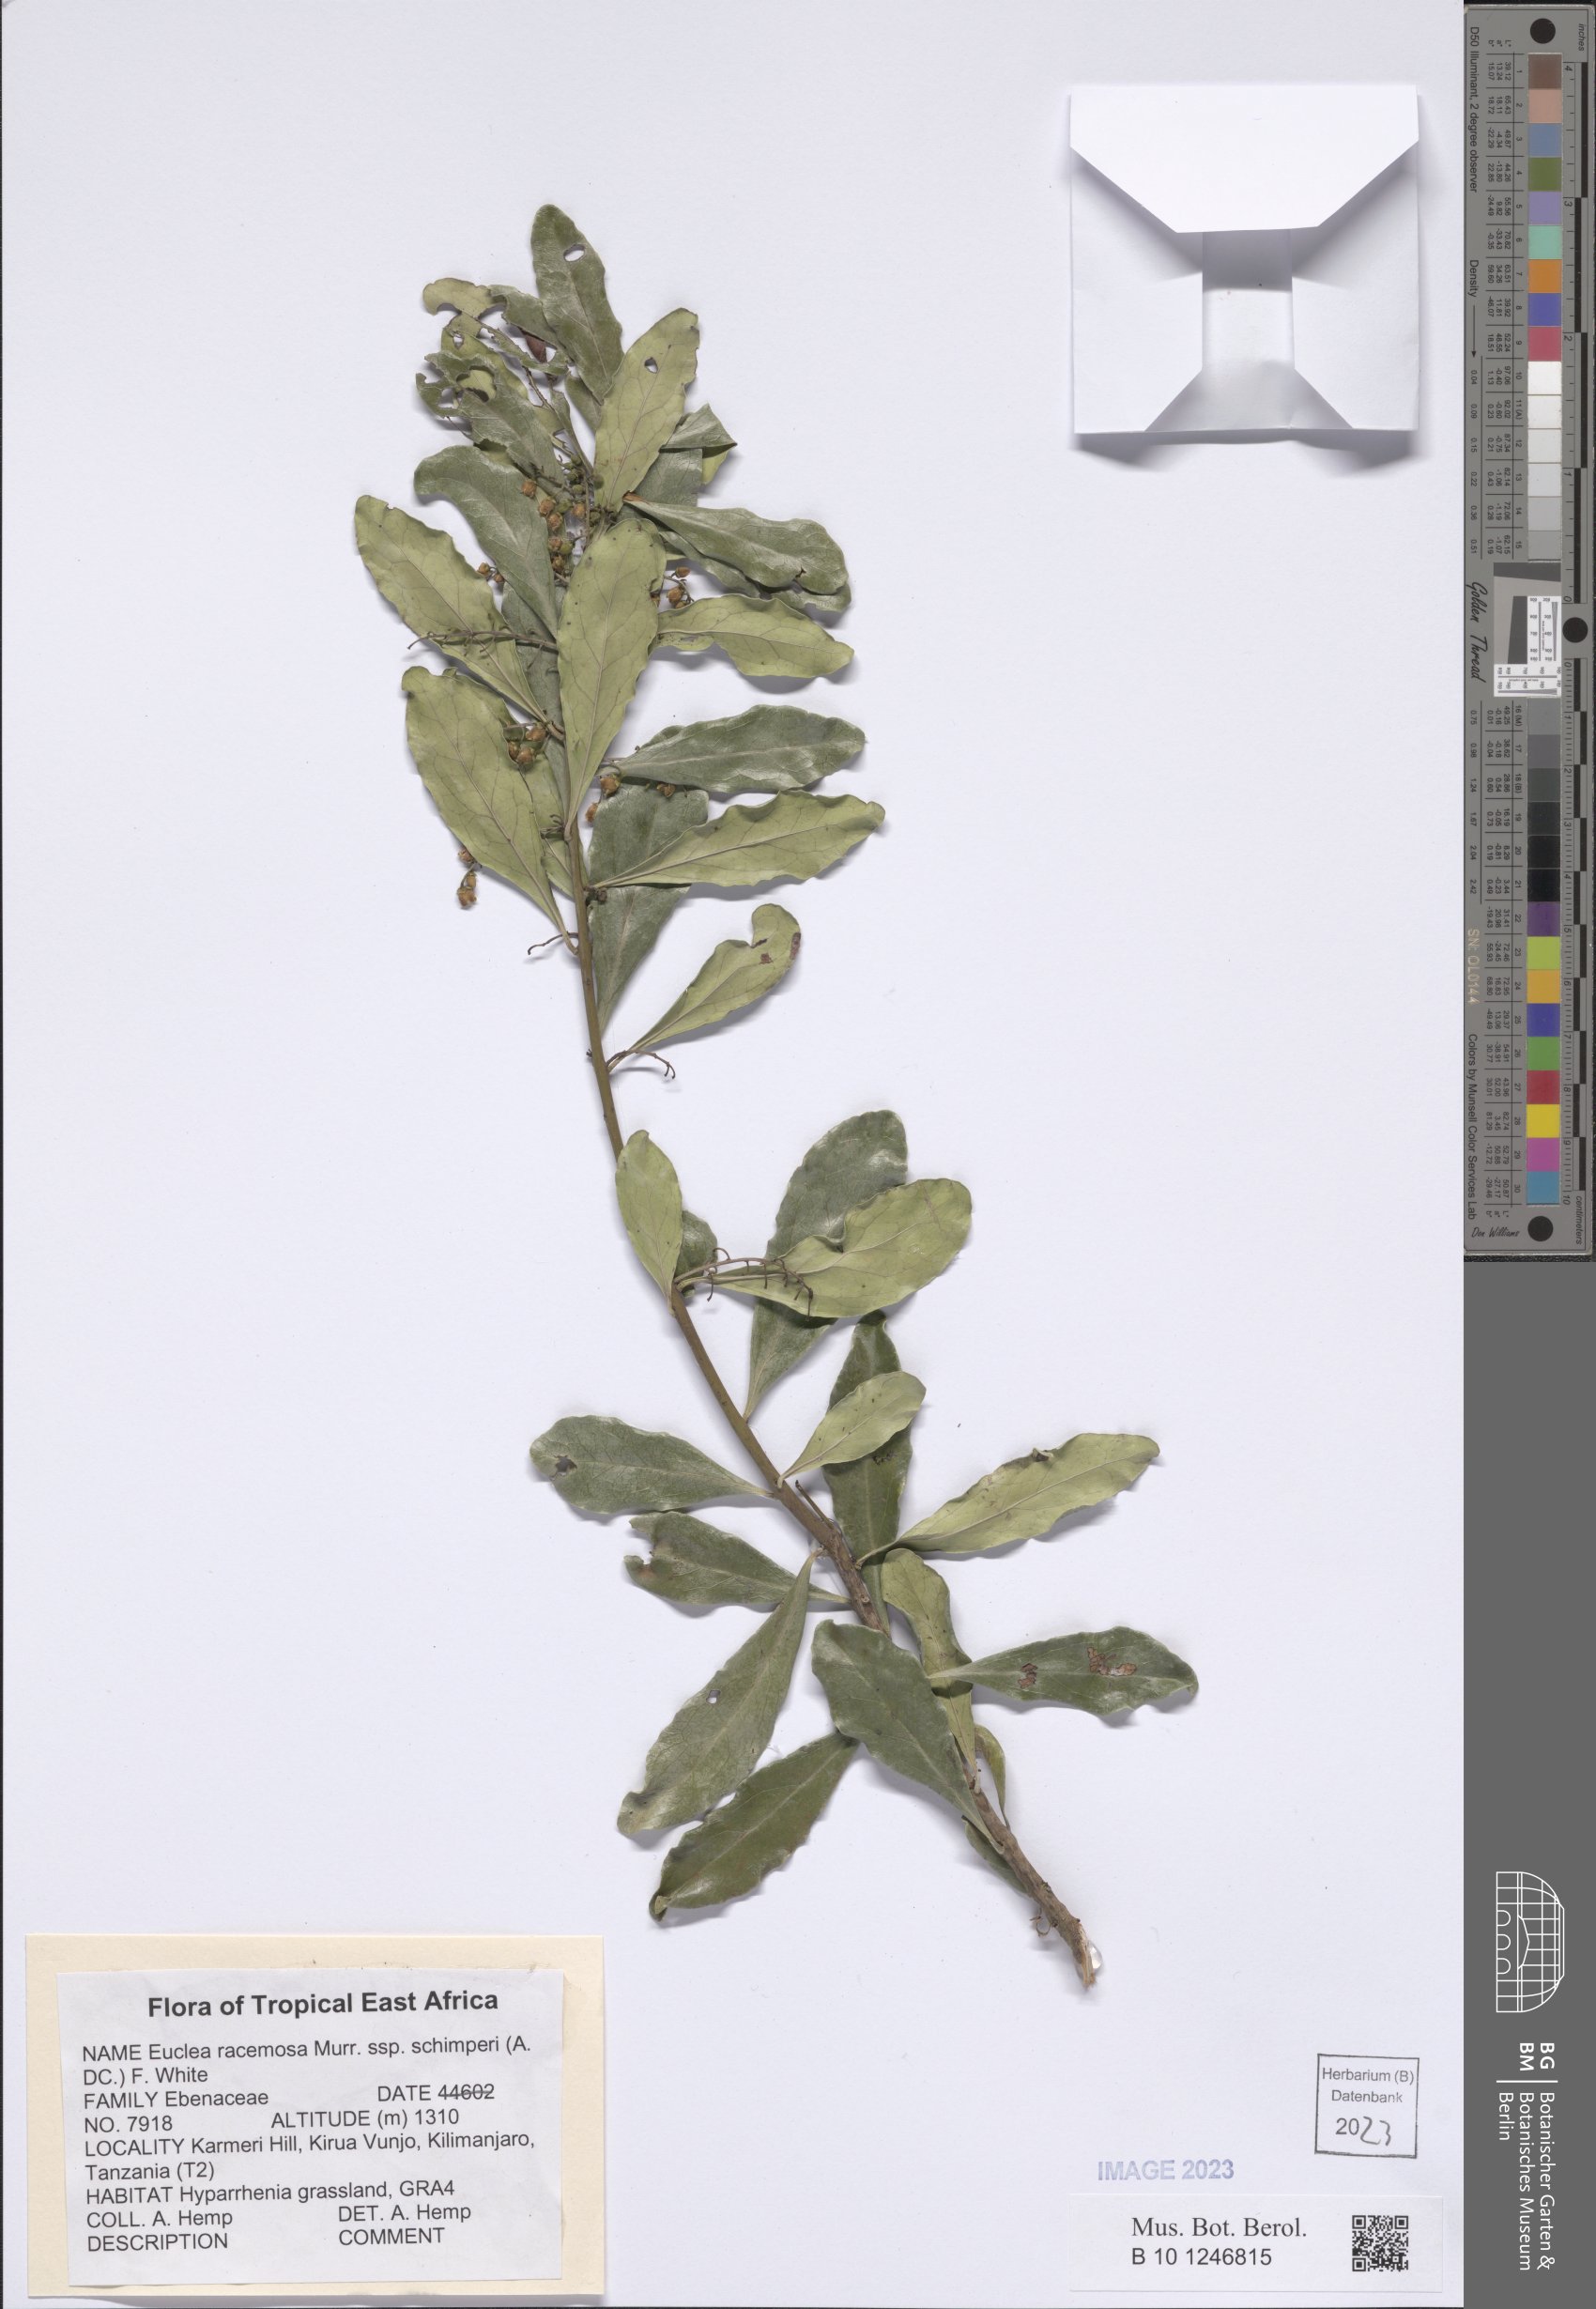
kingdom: Plantae
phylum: Tracheophyta
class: Magnoliopsida
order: Ericales
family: Ebenaceae
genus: Euclea
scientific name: Euclea racemosa
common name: Dune guarri
